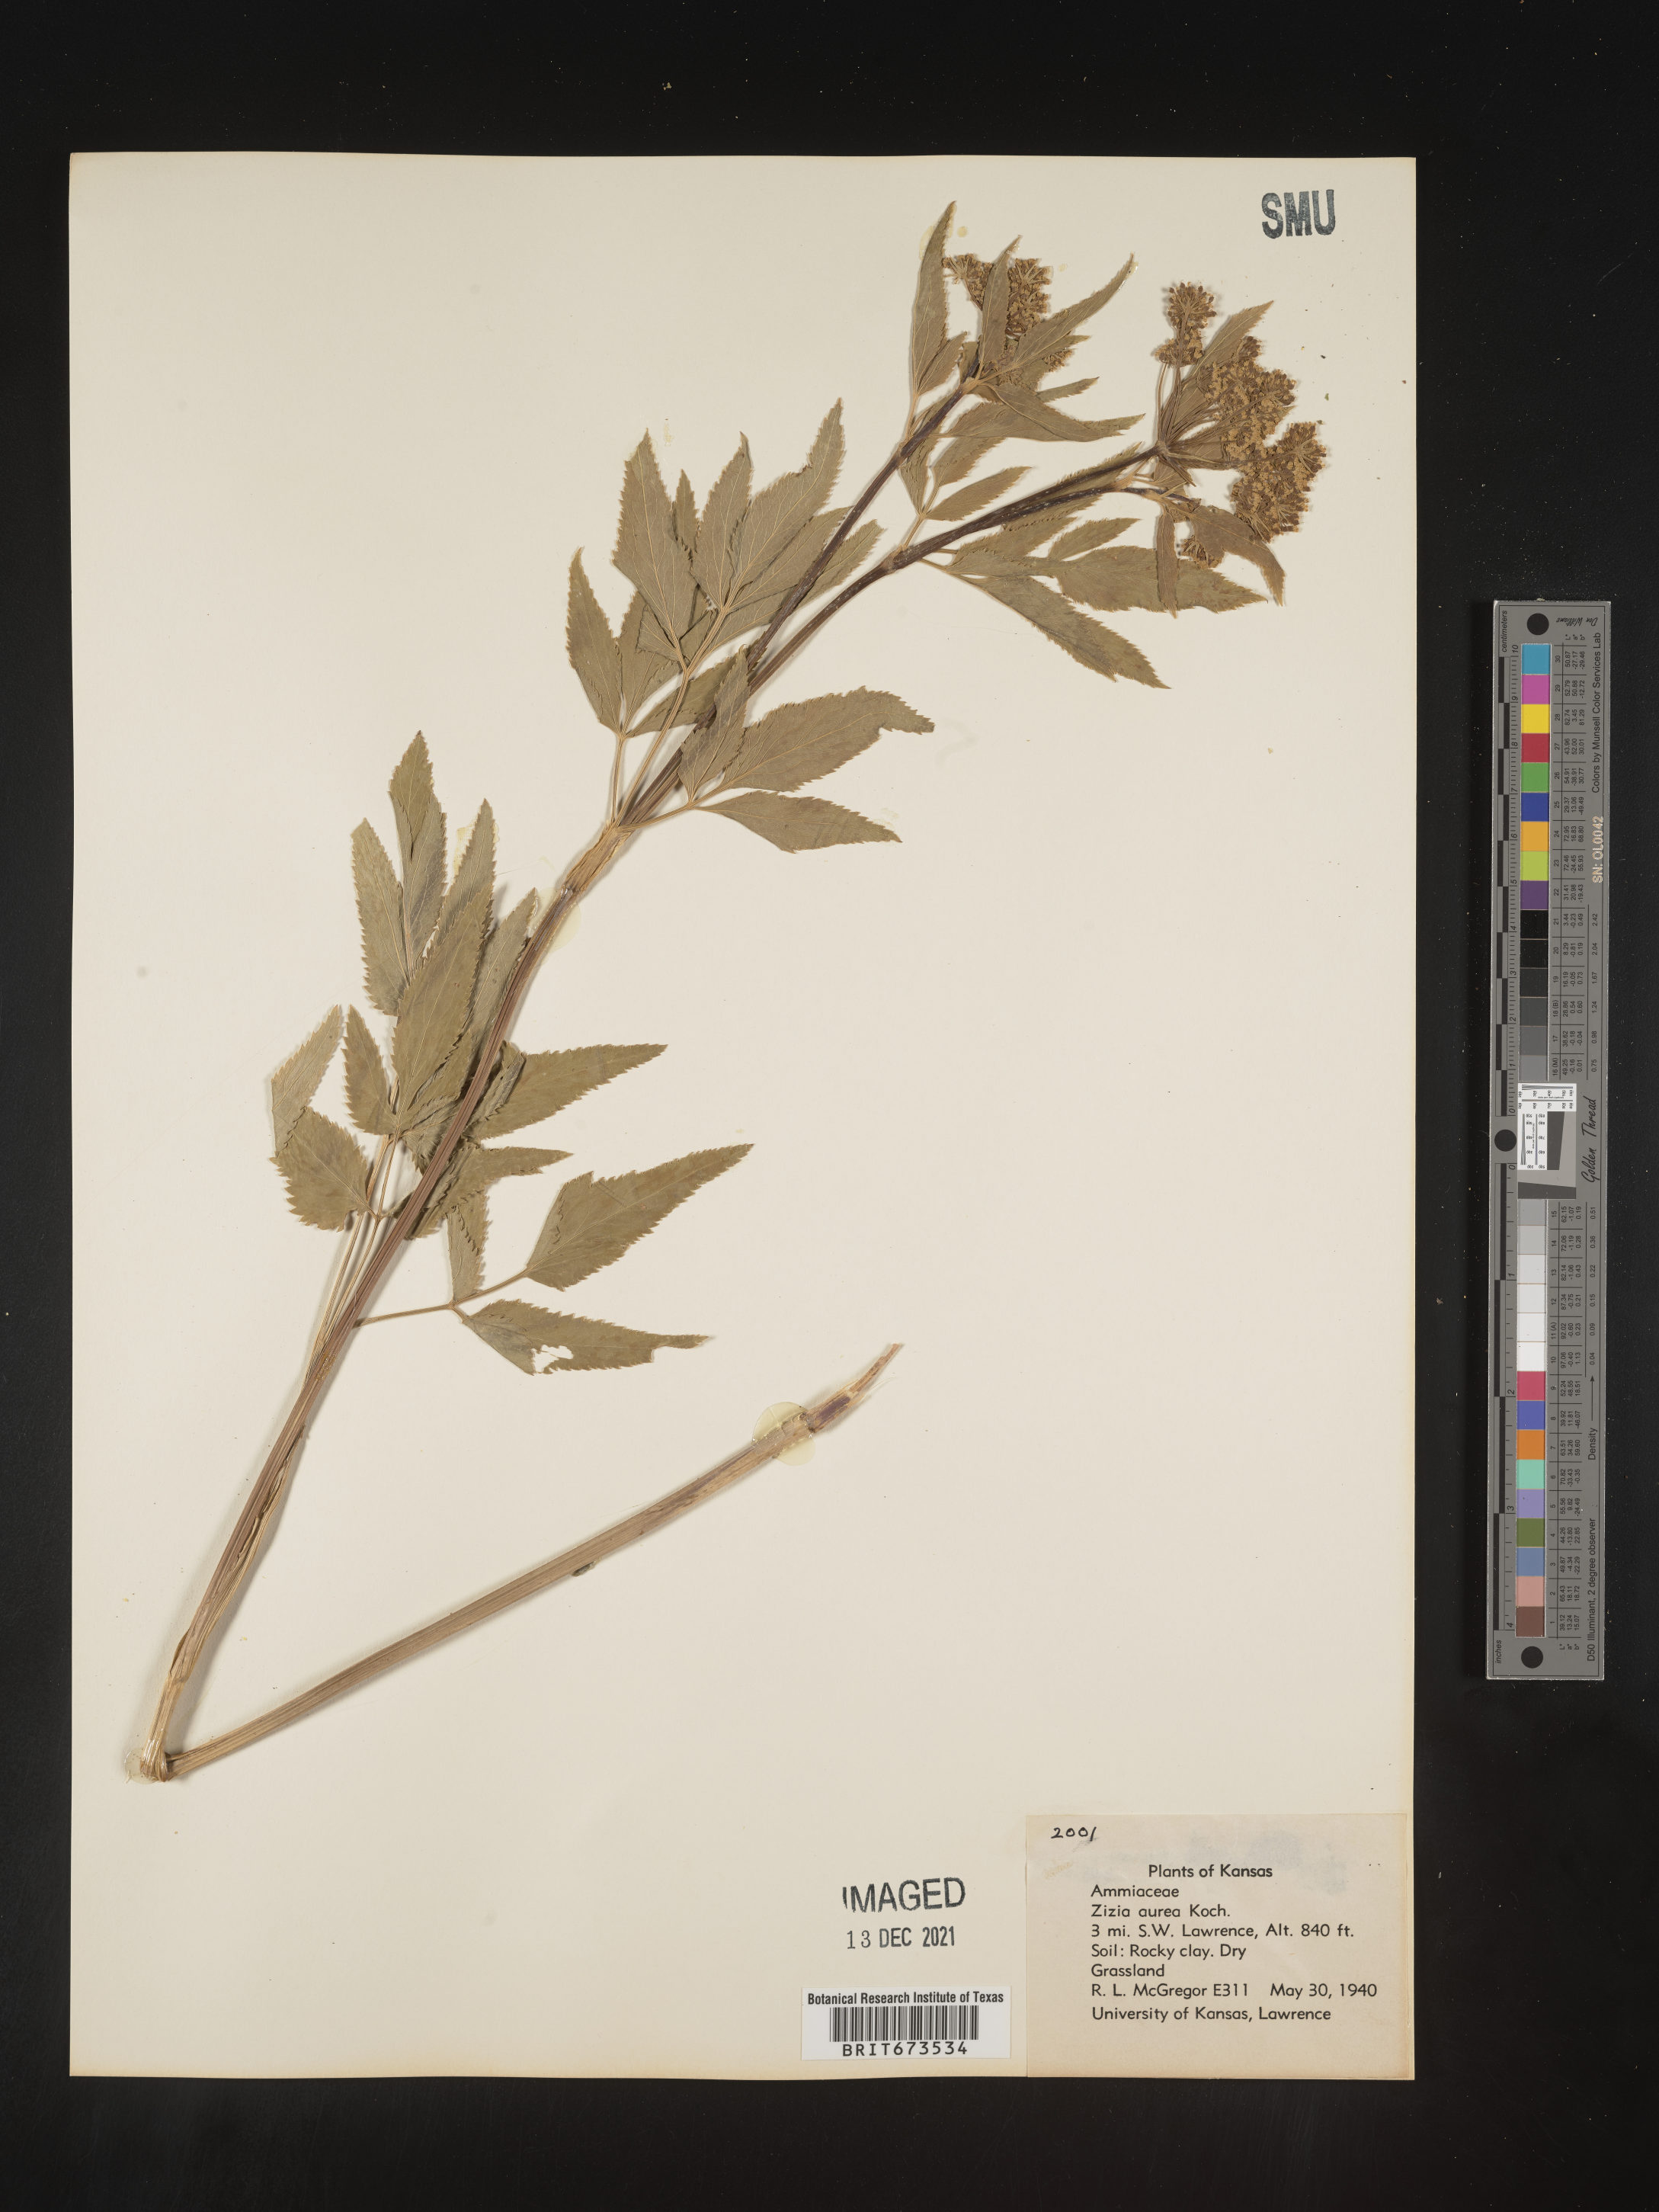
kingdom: Plantae
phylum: Tracheophyta
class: Magnoliopsida
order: Apiales
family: Apiaceae
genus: Zizia
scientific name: Zizia aurea
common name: Golden alexanders
